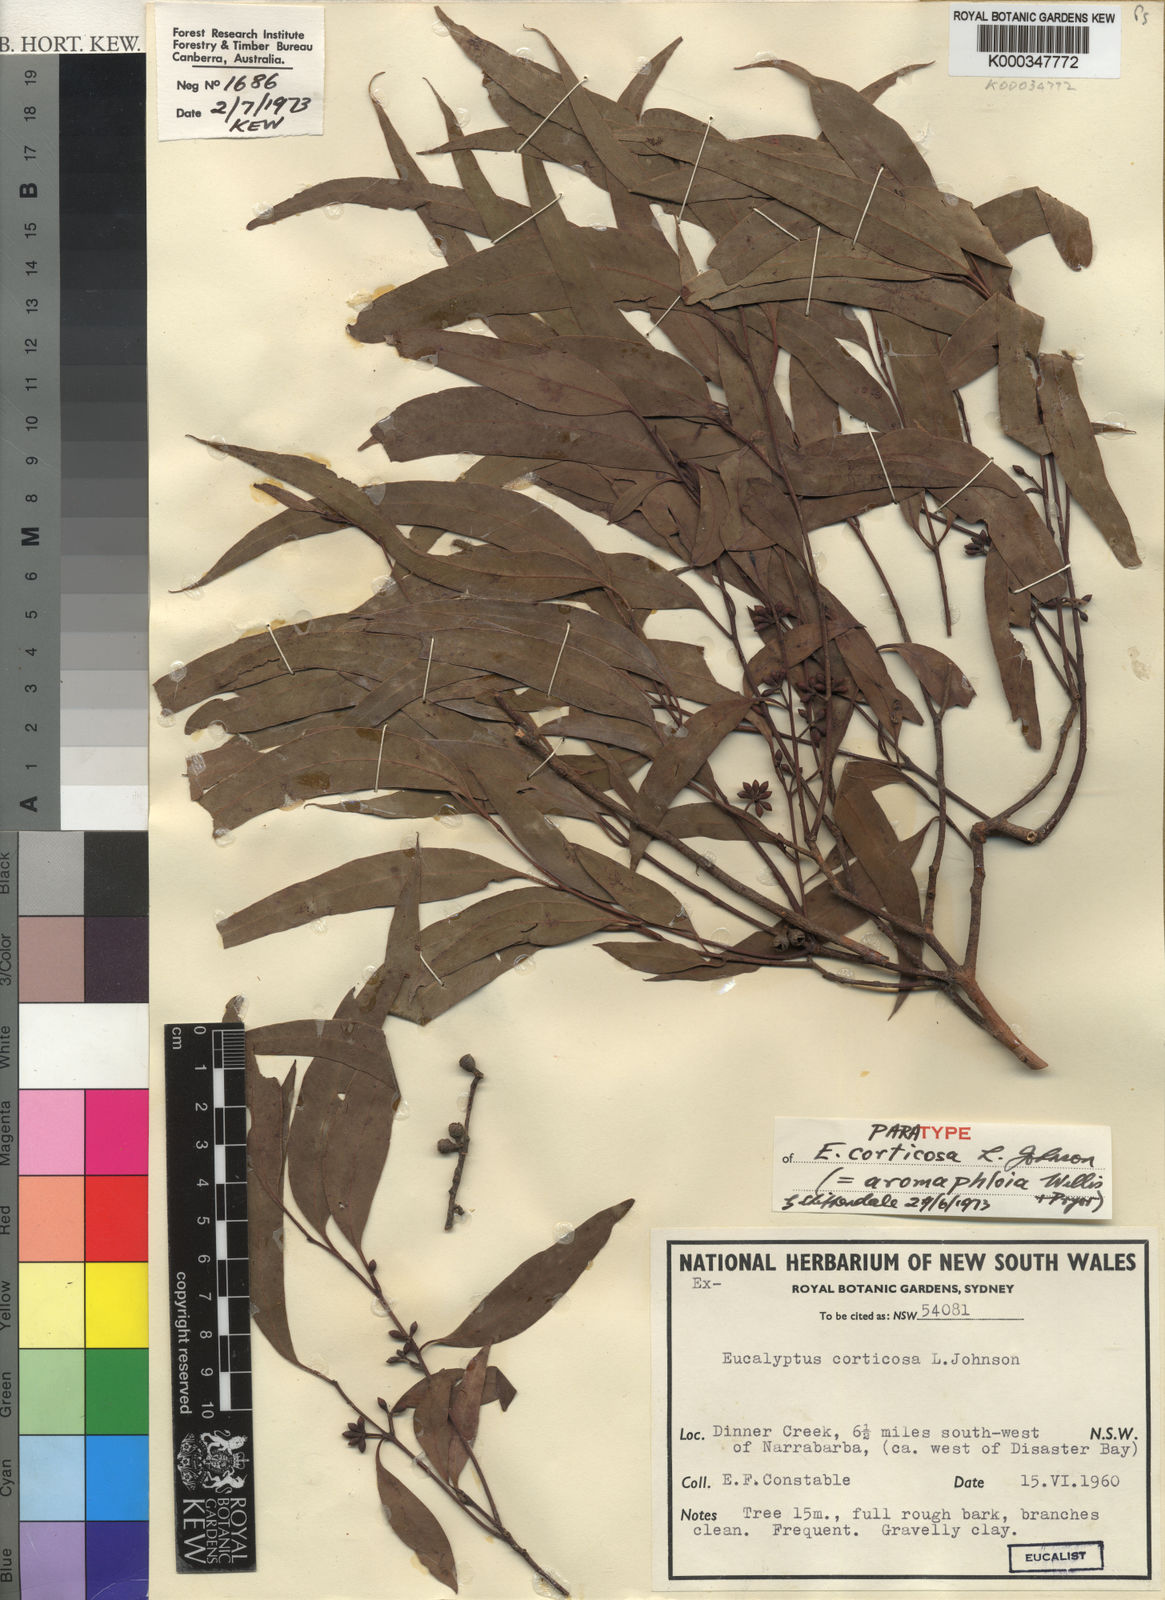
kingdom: Plantae
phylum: Tracheophyta
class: Magnoliopsida
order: Myrtales
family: Myrtaceae
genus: Eucalyptus
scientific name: Eucalyptus aromaphloia
